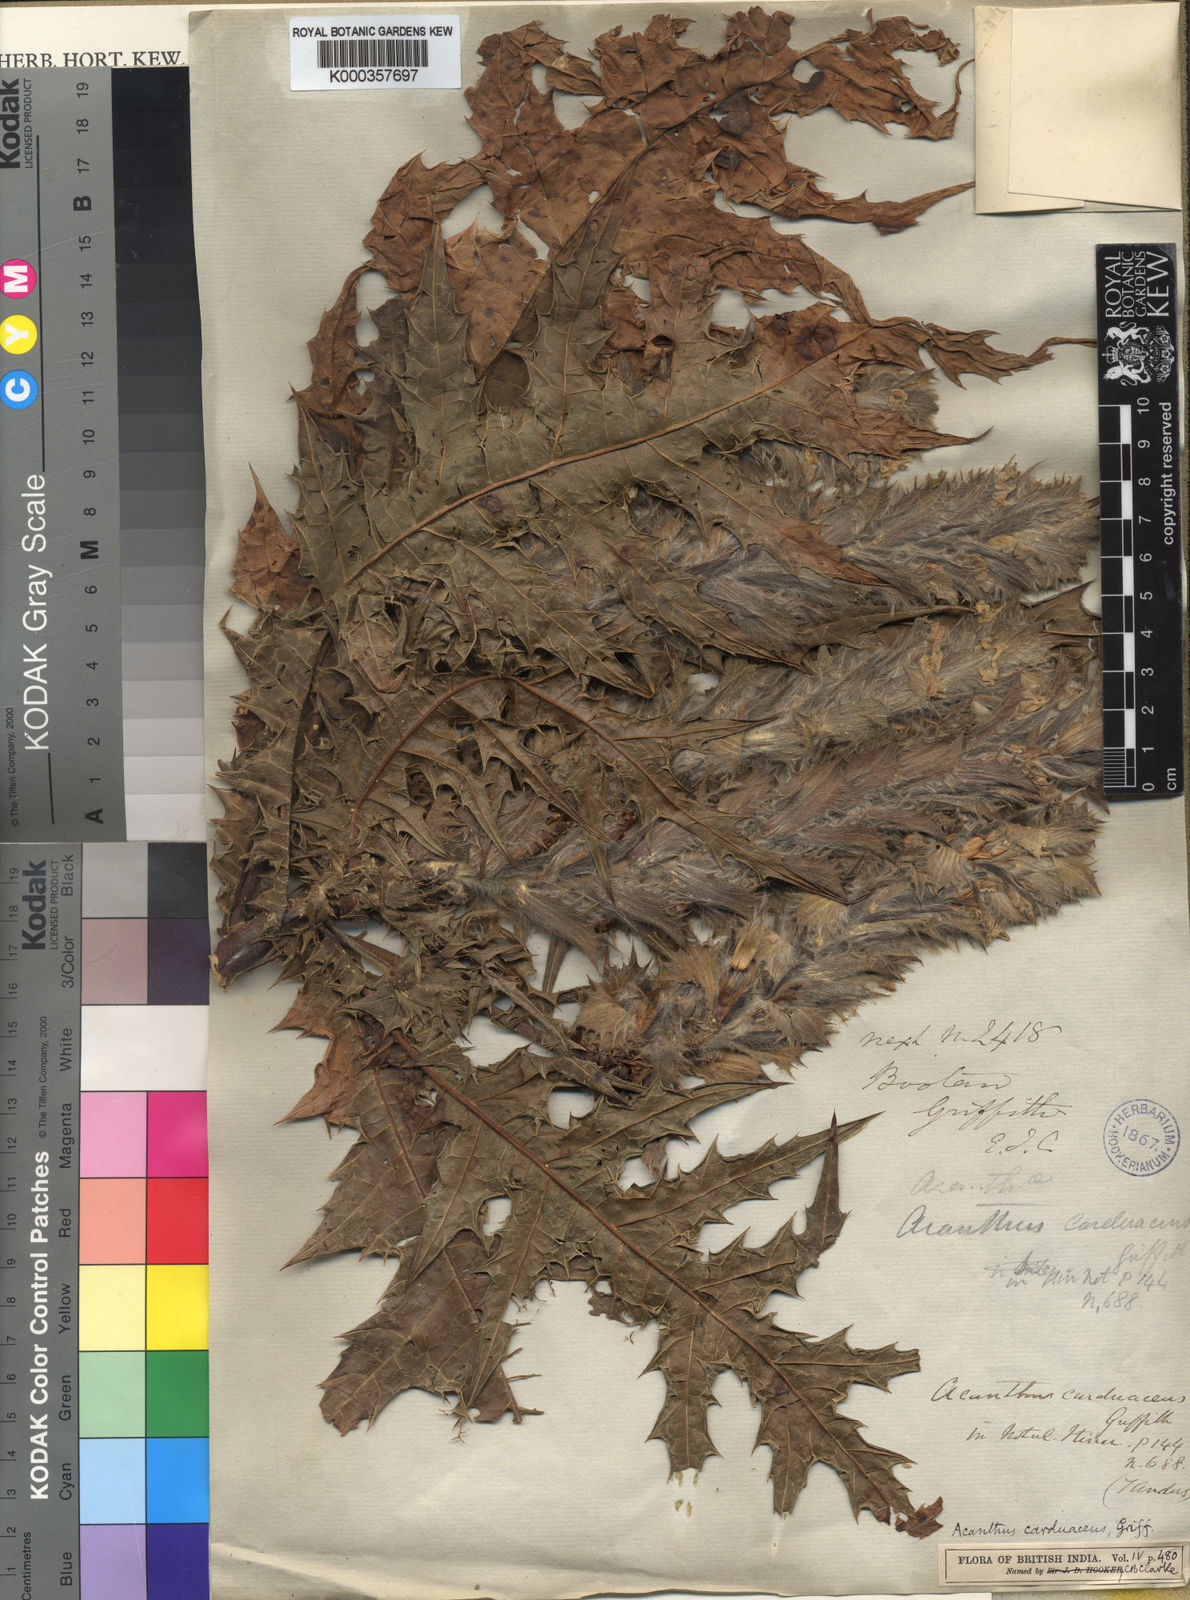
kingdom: Plantae
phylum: Tracheophyta
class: Magnoliopsida
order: Lamiales
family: Acanthaceae
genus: Acanthus
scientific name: Acanthus carduaceus
